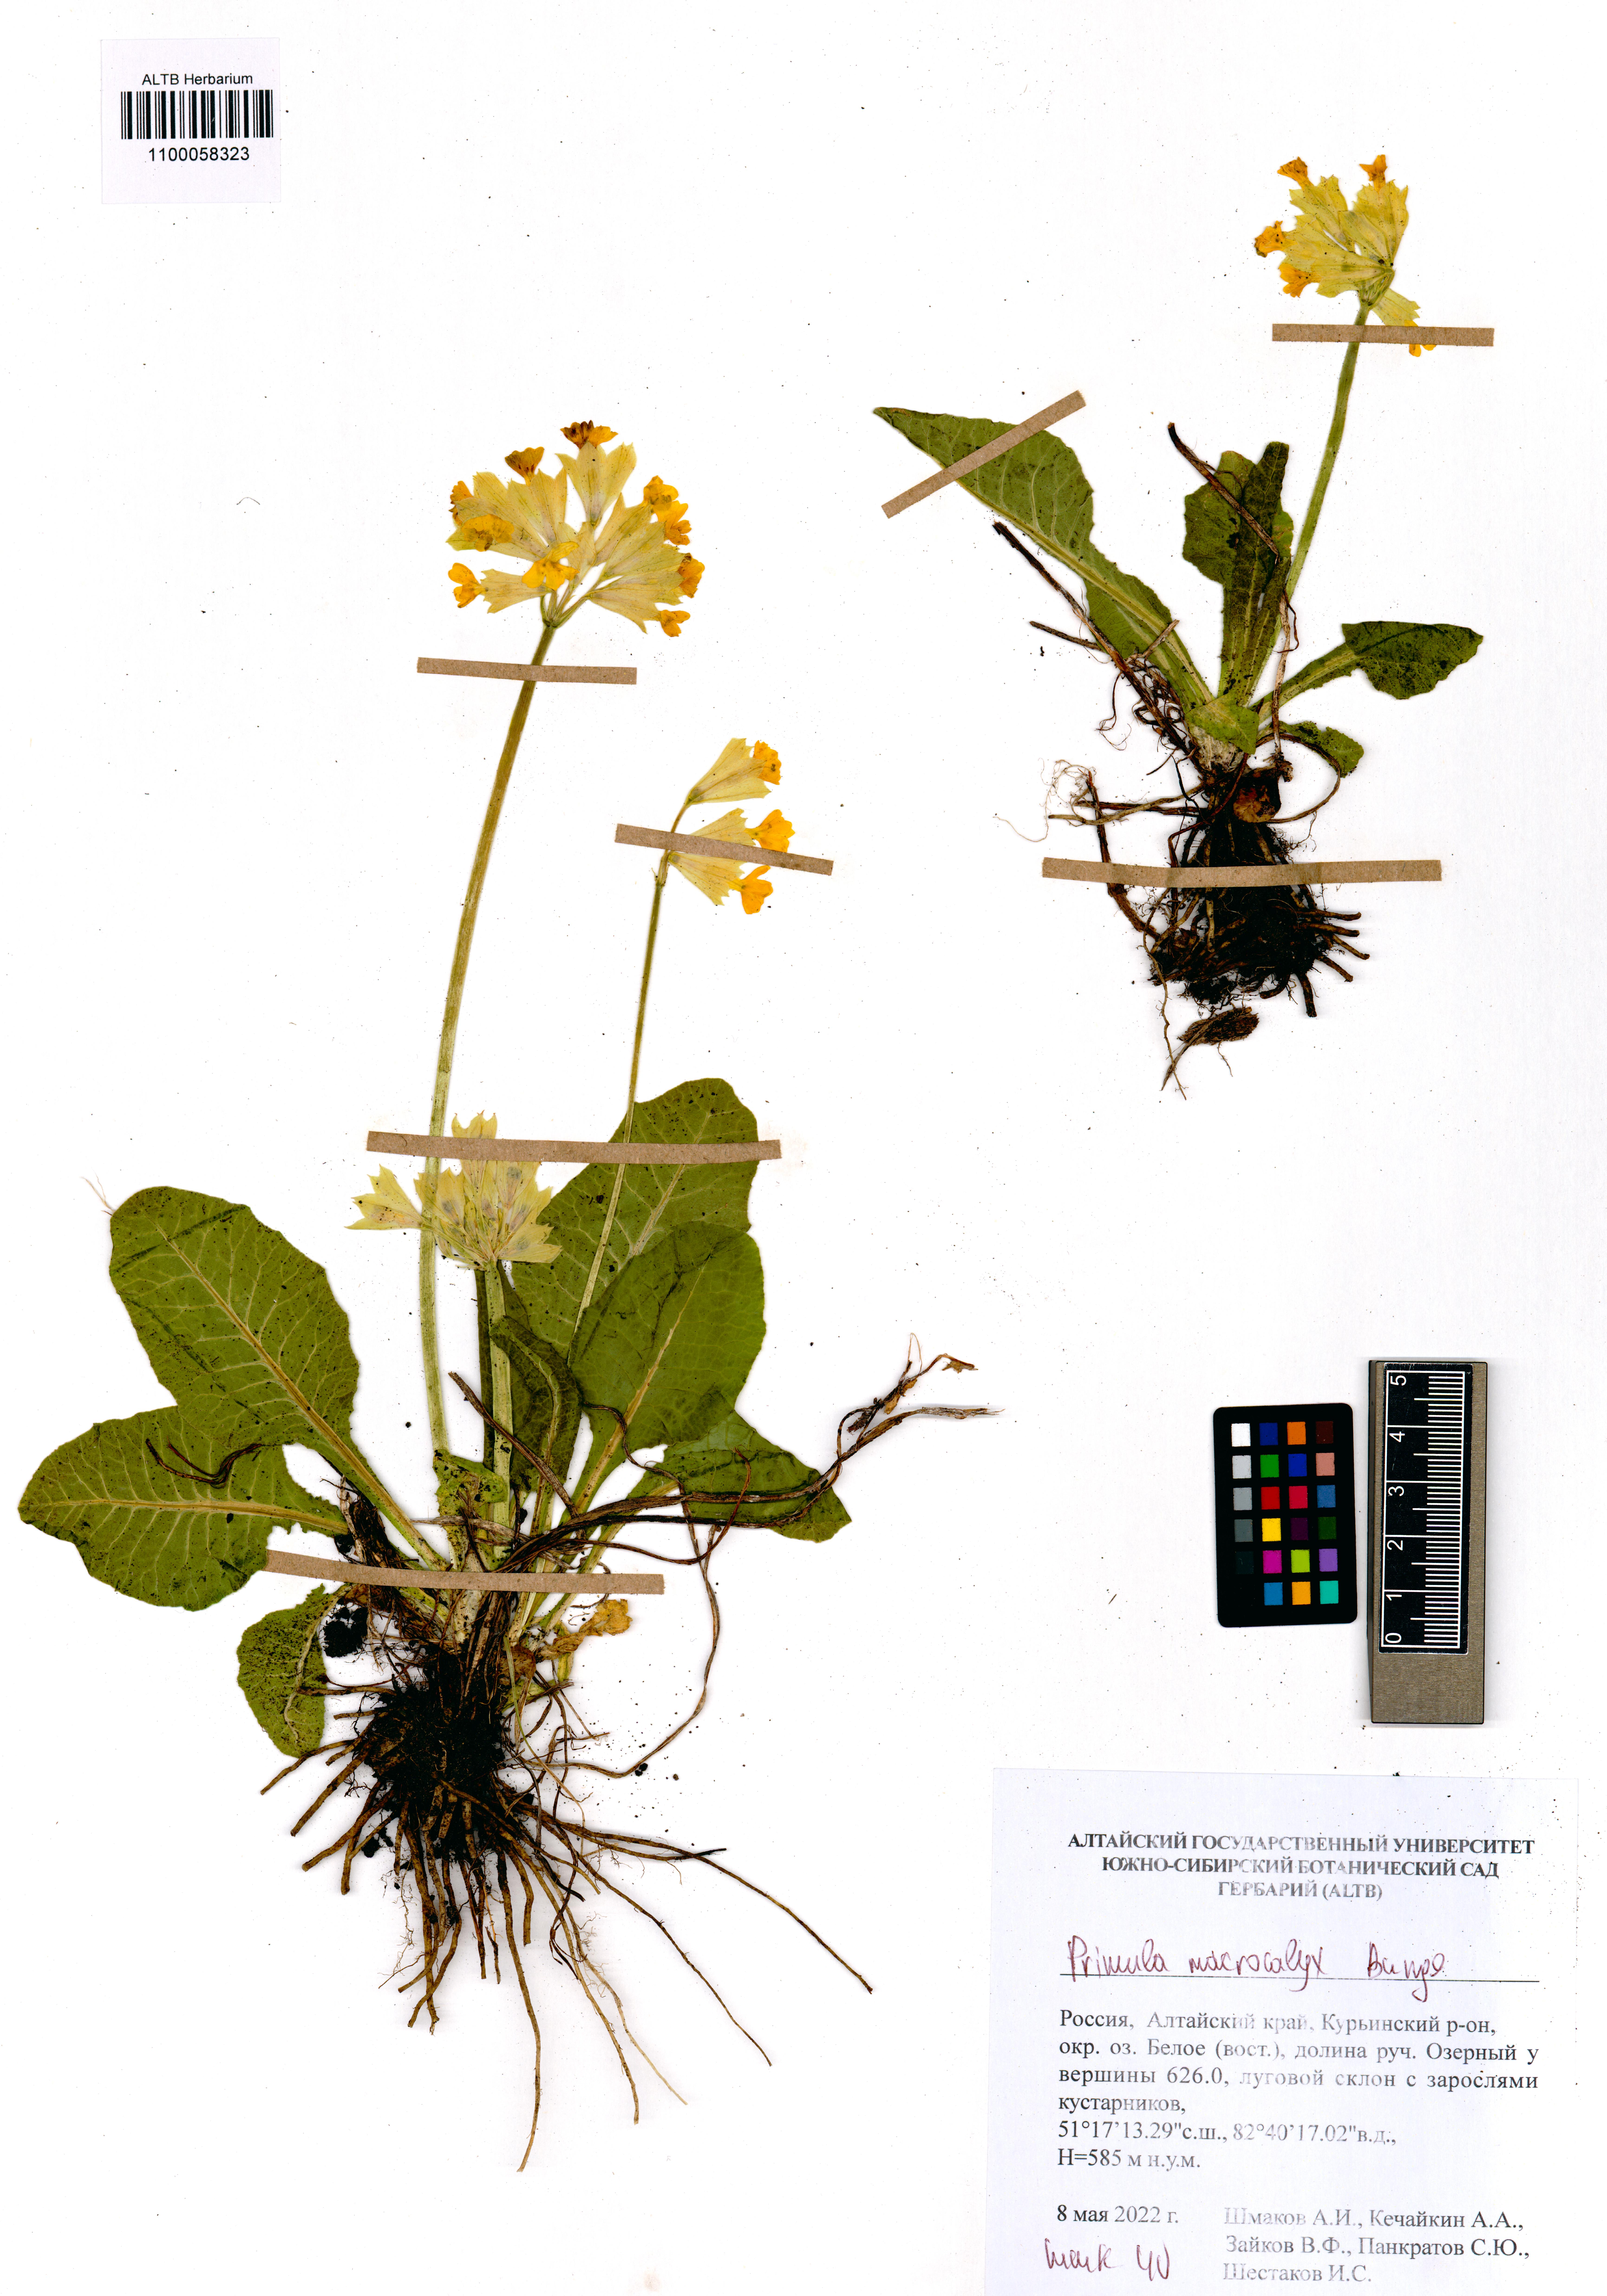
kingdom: Plantae
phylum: Tracheophyta
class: Magnoliopsida
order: Ericales
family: Primulaceae
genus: Primula
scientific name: Primula veris
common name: Cowslip
